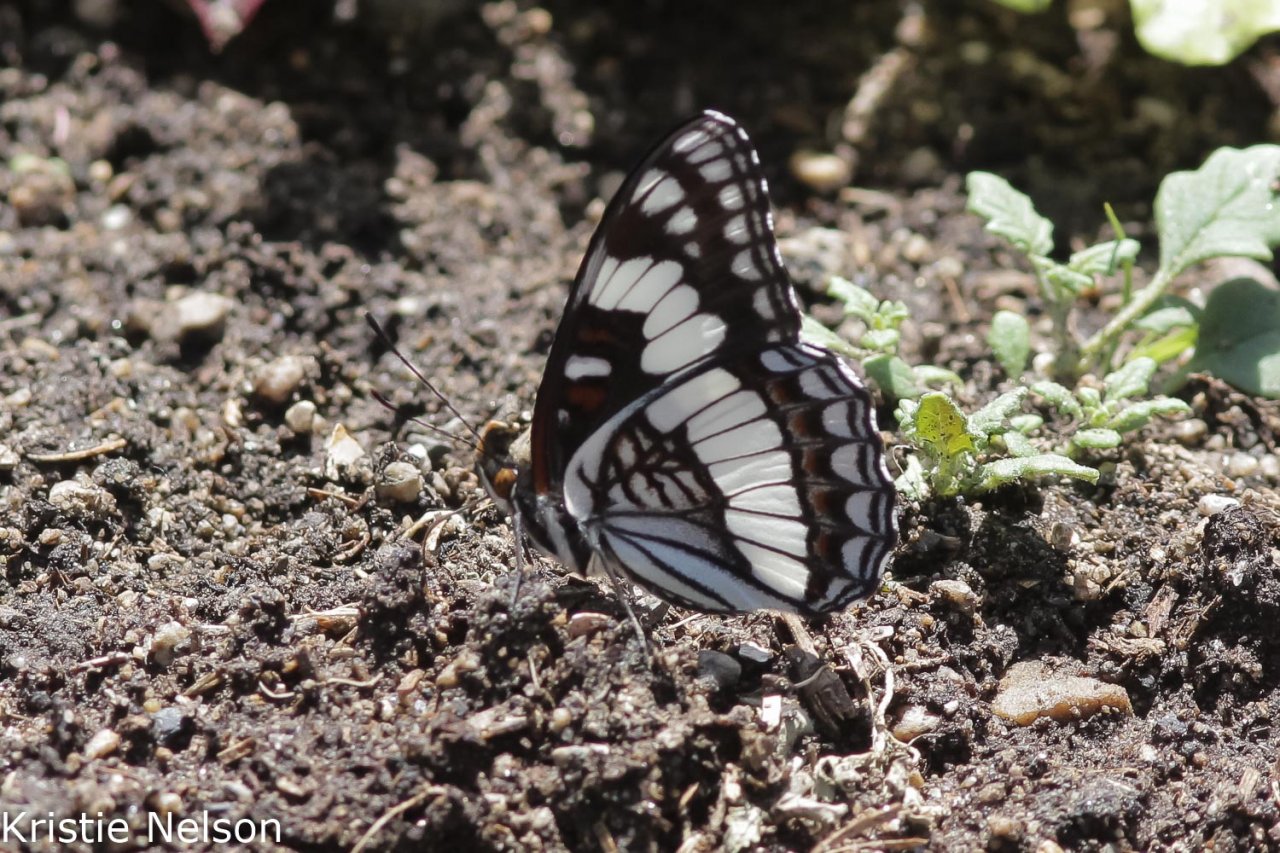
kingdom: Animalia
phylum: Arthropoda
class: Insecta
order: Lepidoptera
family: Nymphalidae
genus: Limenitis
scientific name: Limenitis weidemeyerii
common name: Weidemeyer's Admiral
